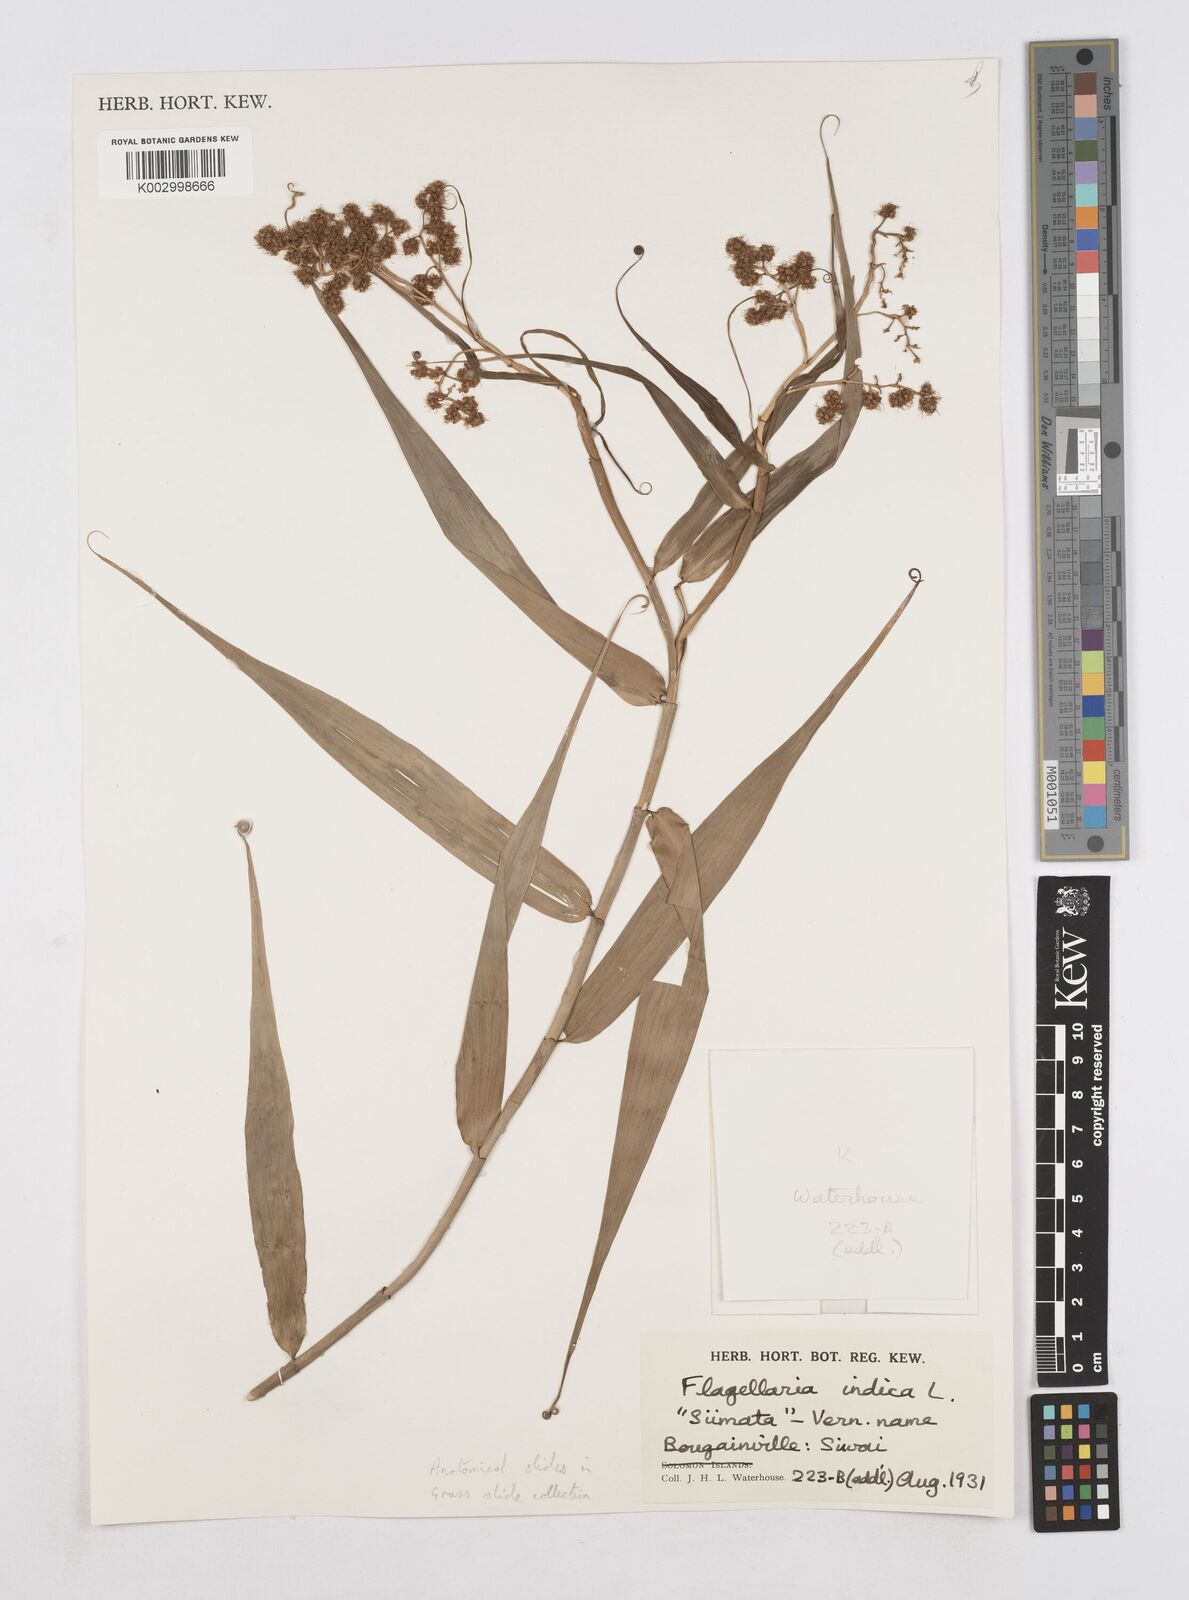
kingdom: Plantae
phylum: Tracheophyta
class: Liliopsida
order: Poales
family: Flagellariaceae
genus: Flagellaria
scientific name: Flagellaria indica
